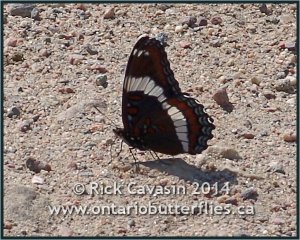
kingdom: Animalia
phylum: Arthropoda
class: Insecta
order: Lepidoptera
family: Nymphalidae
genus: Limenitis
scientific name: Limenitis arthemis
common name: Red-spotted Admiral
